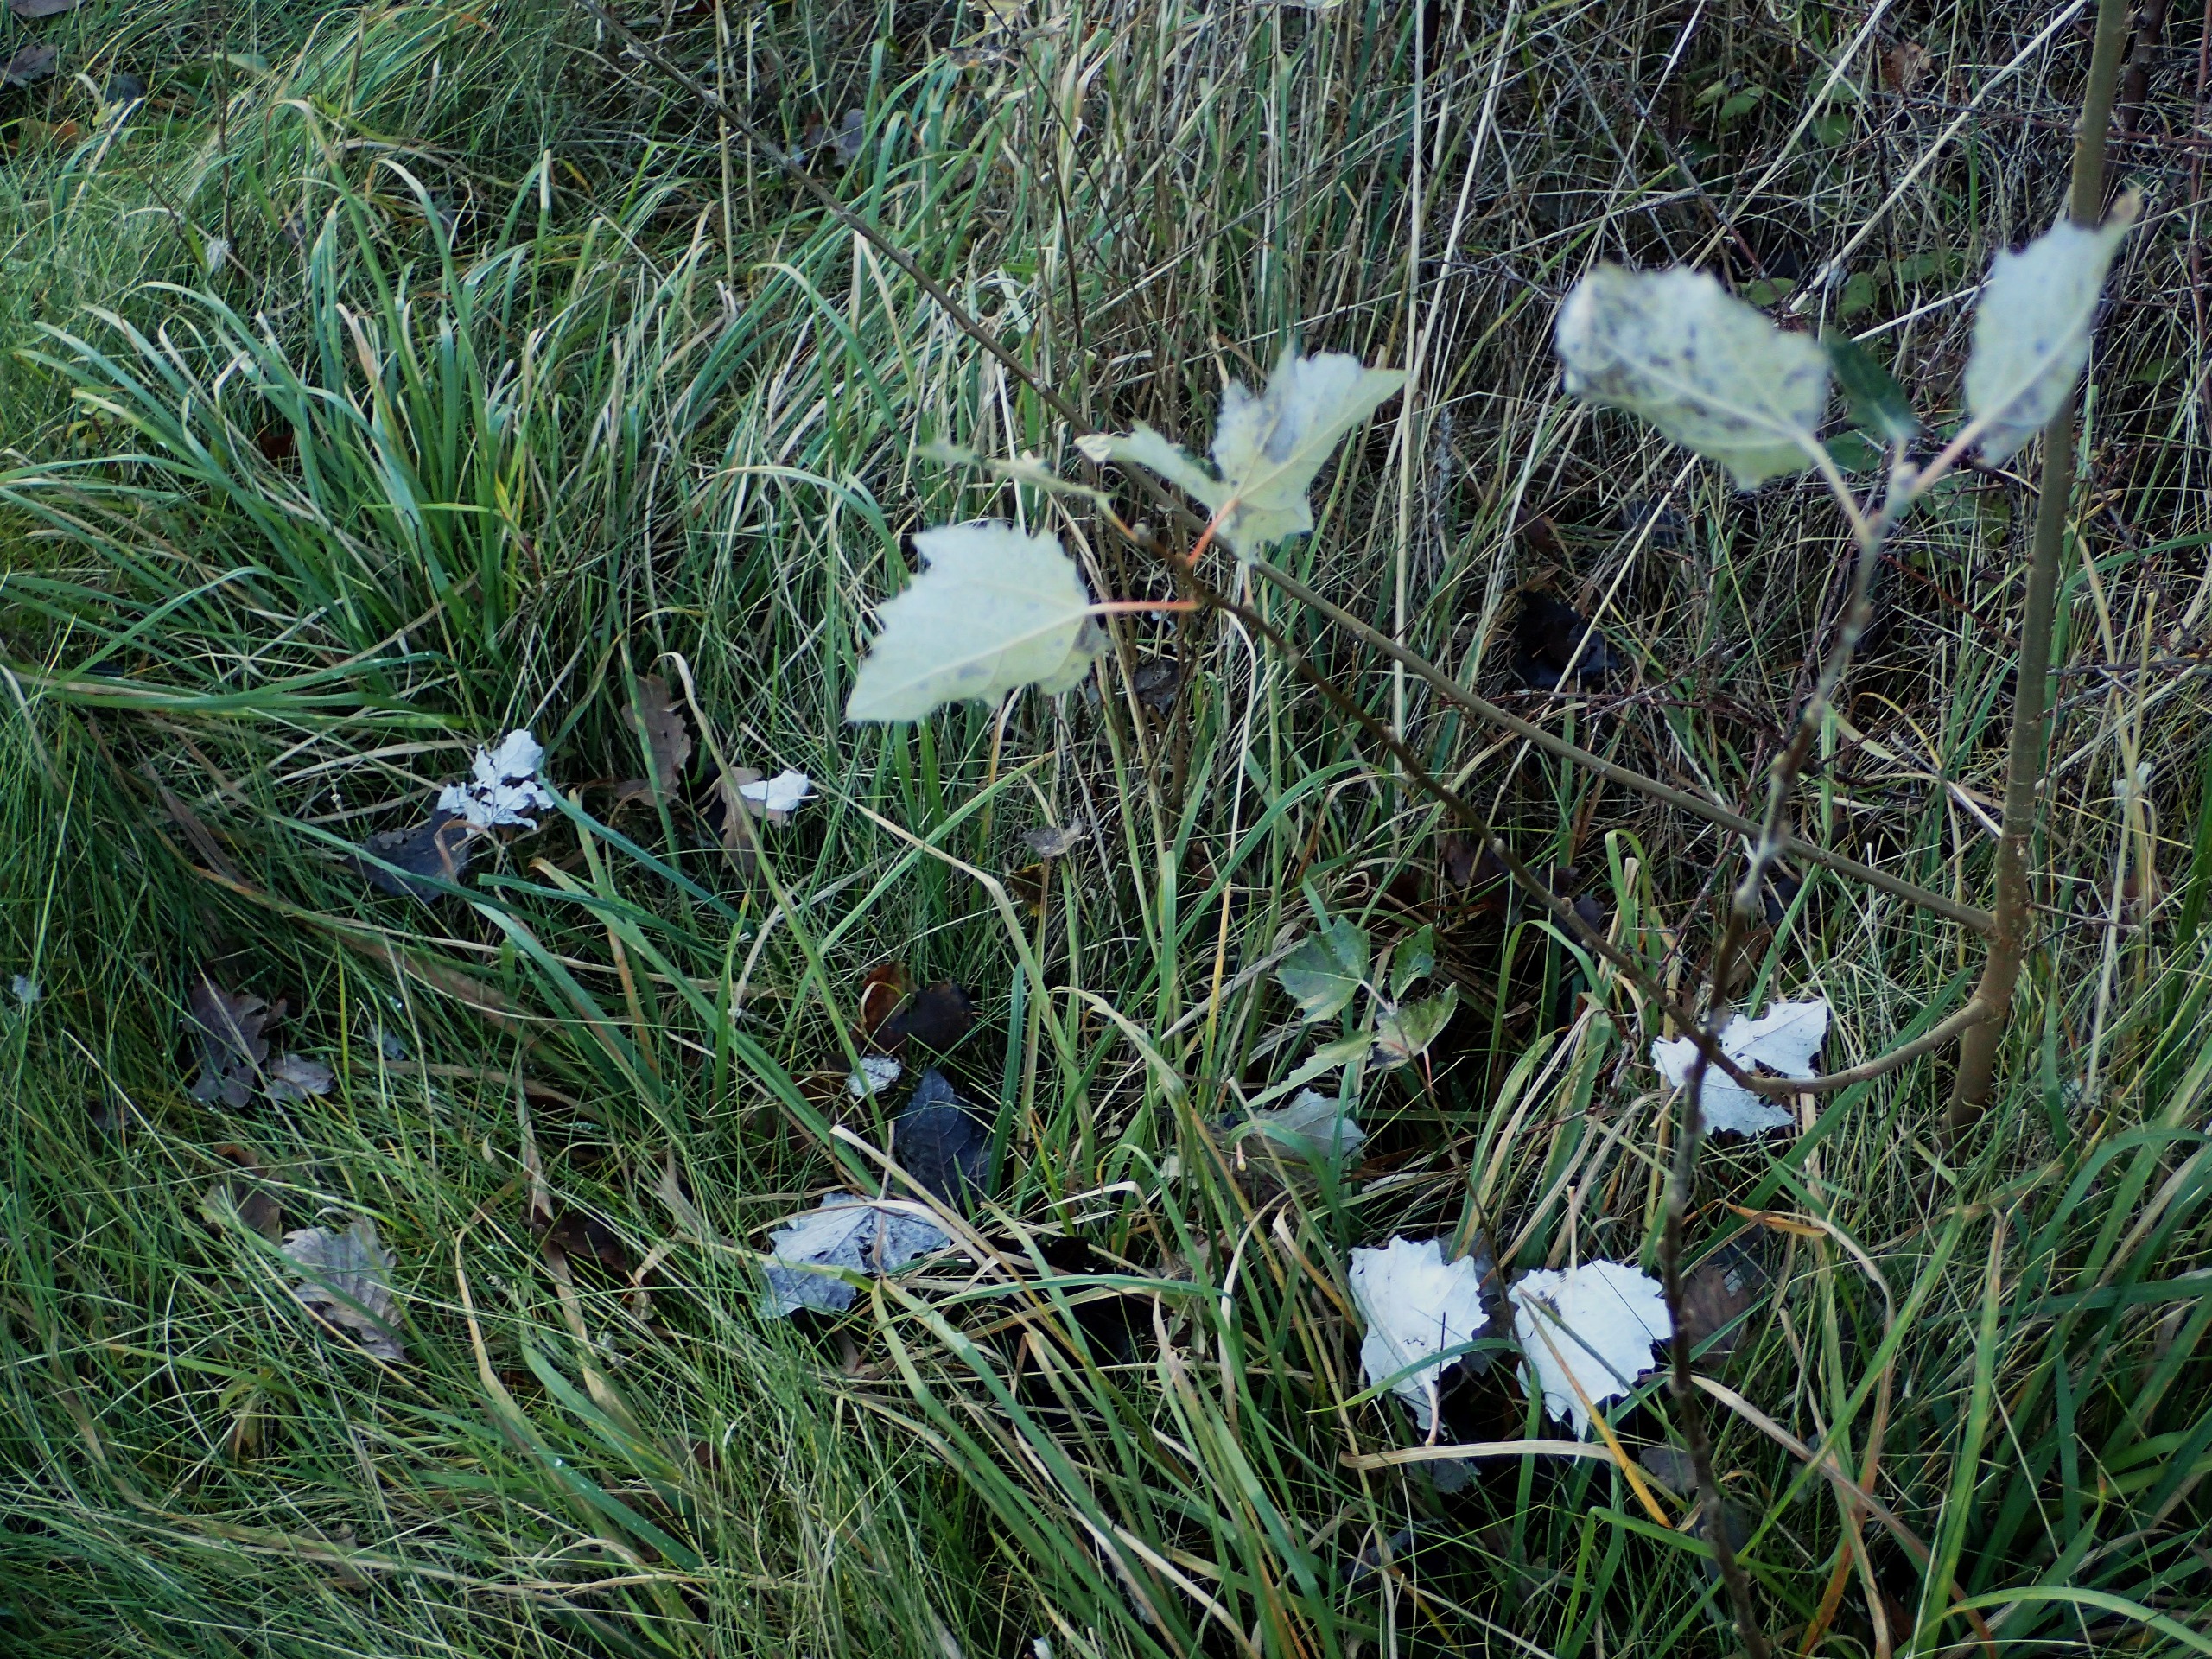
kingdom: Plantae
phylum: Tracheophyta
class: Magnoliopsida
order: Malpighiales
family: Salicaceae
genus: Populus
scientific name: Populus canescens
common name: Grå-poppel
